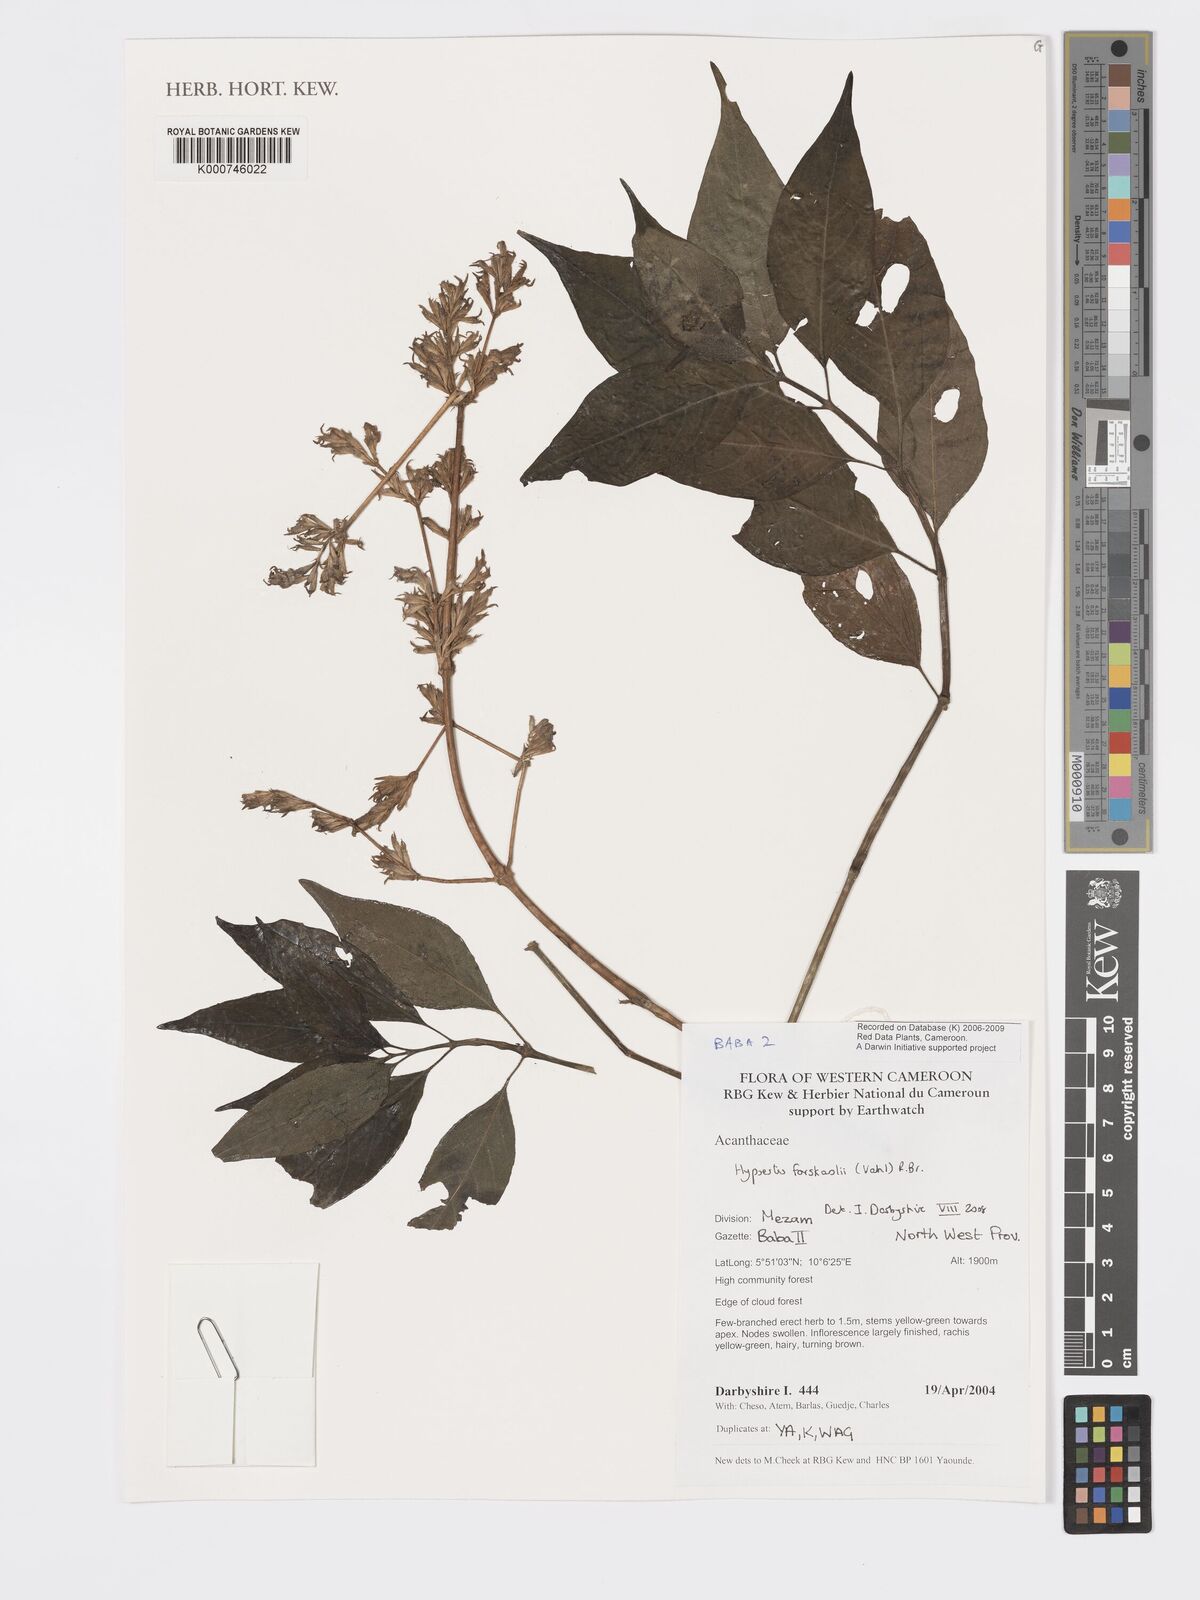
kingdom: Plantae
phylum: Tracheophyta
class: Magnoliopsida
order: Lamiales
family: Acanthaceae
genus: Hypoestes
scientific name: Hypoestes forskaolii
